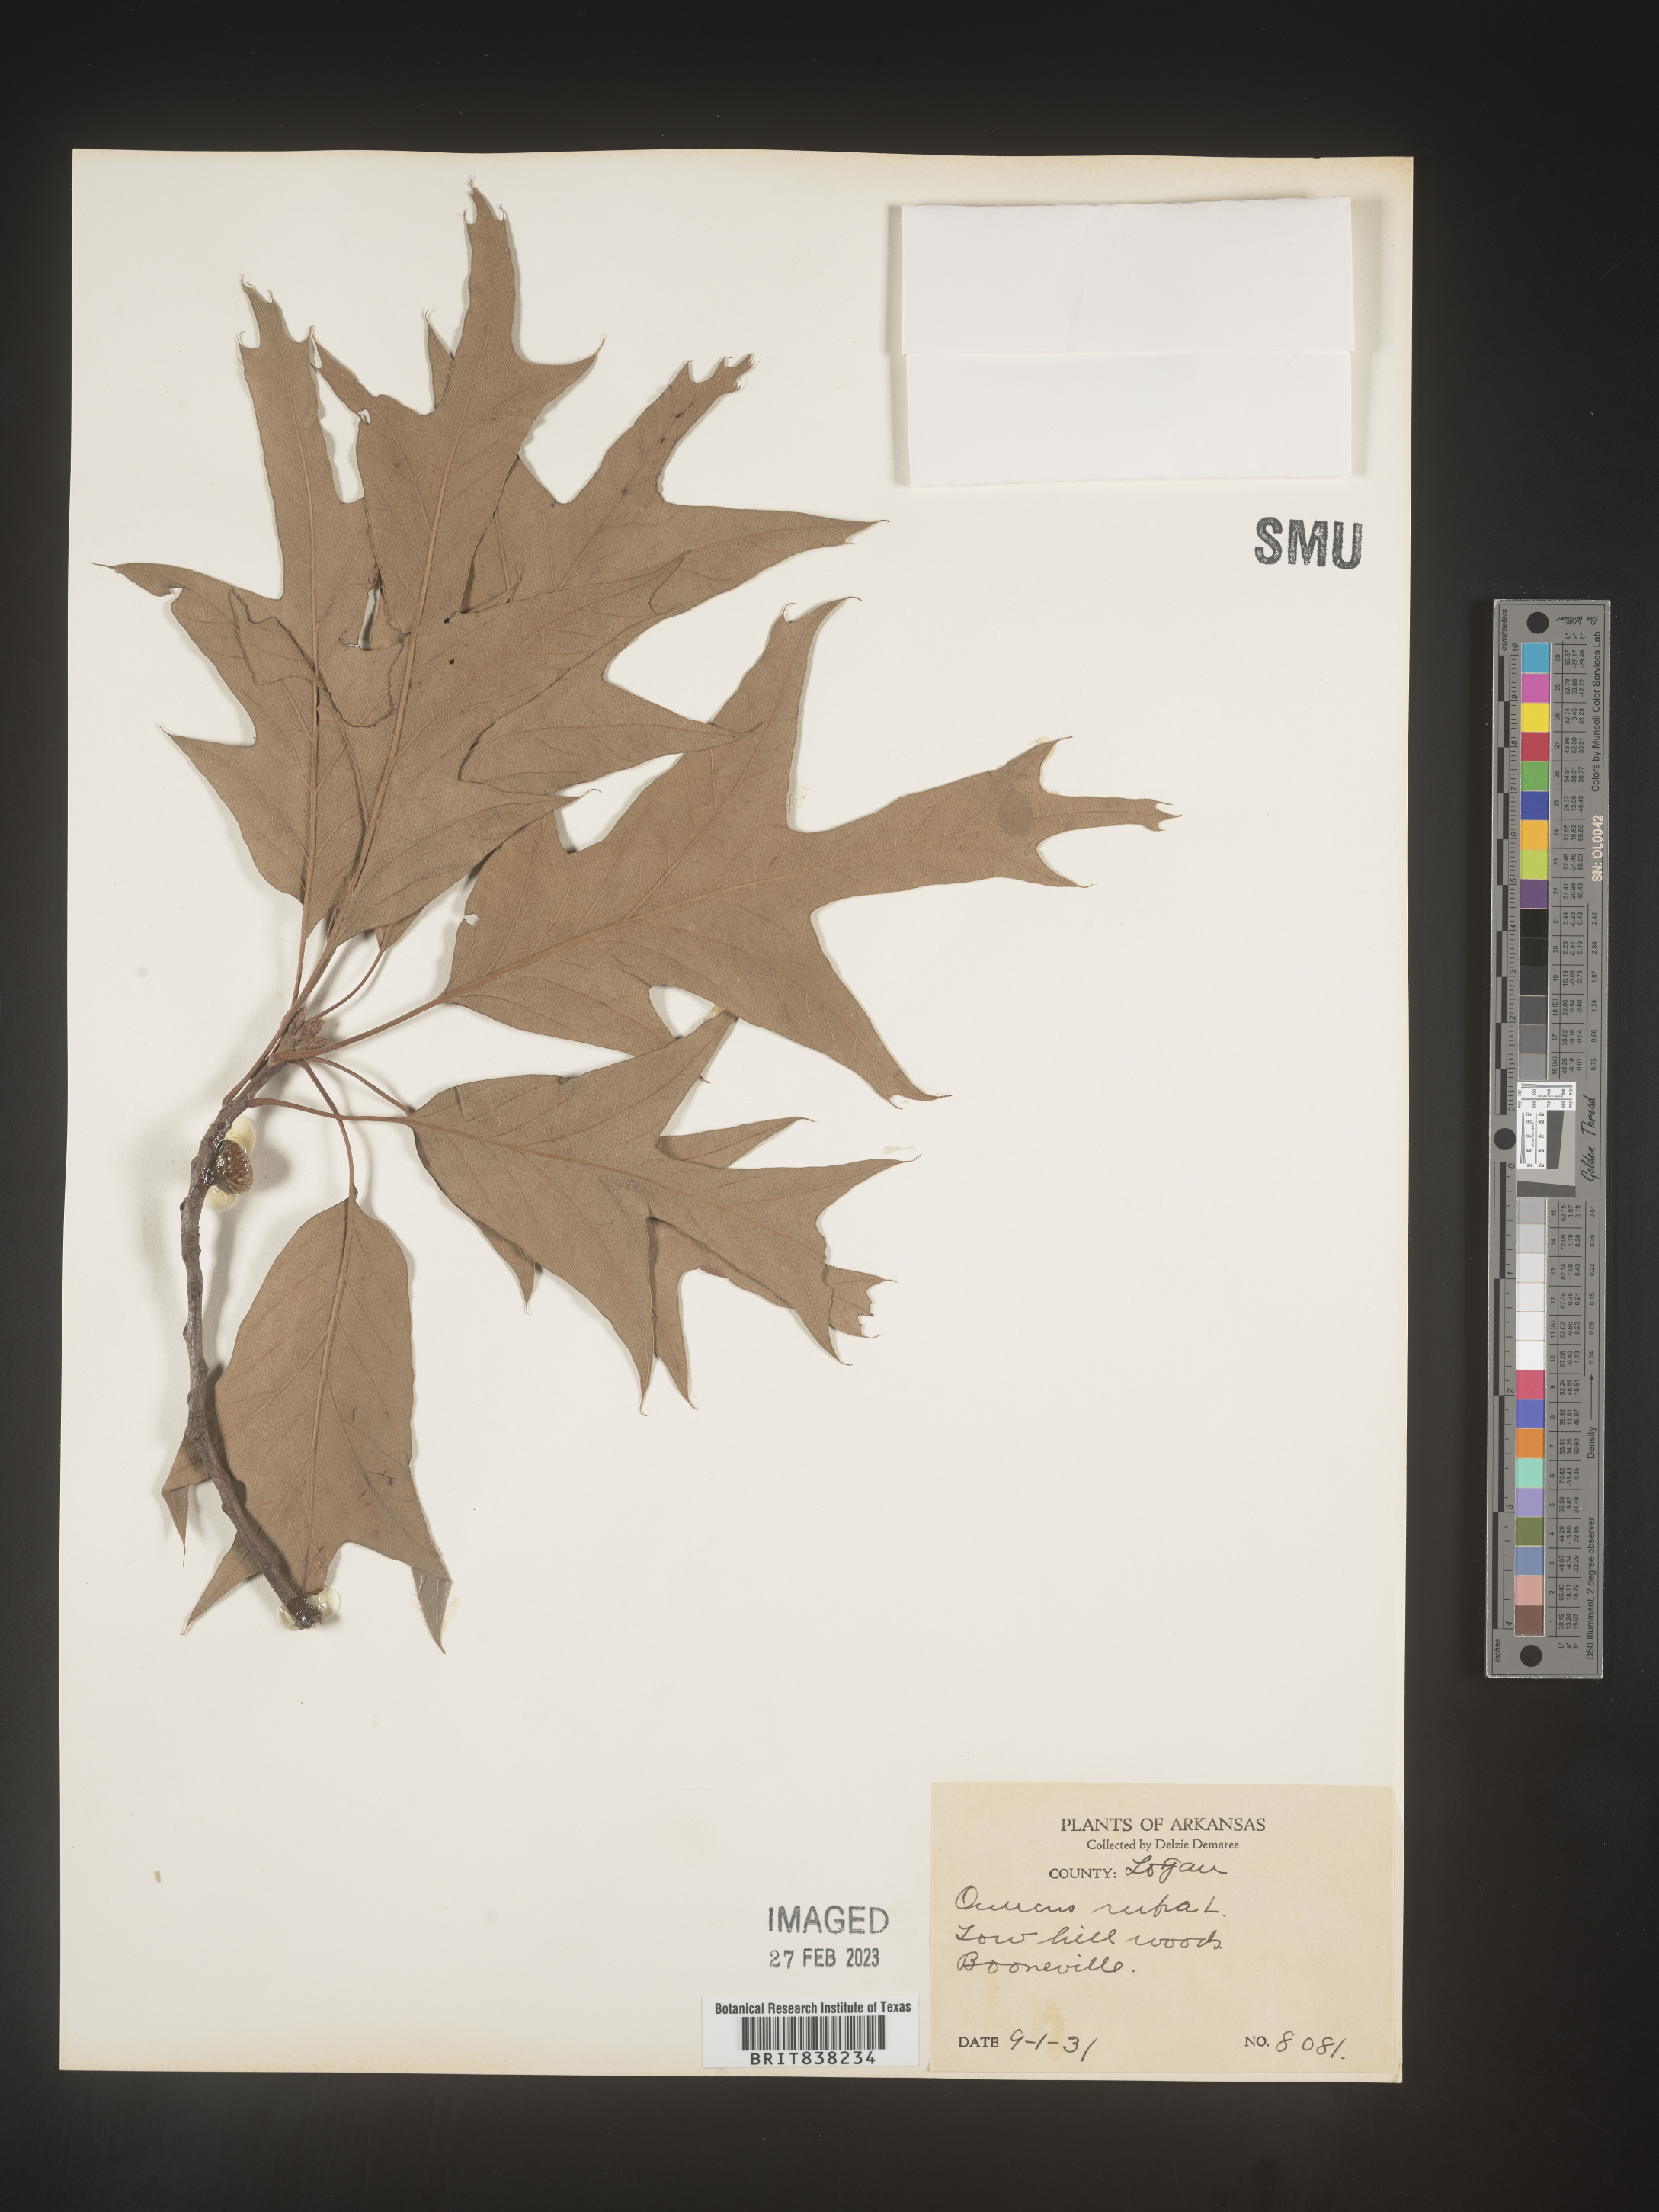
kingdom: Plantae
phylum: Tracheophyta
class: Magnoliopsida
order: Fagales
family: Fagaceae
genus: Quercus
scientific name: Quercus falcata
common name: Southern red oak
